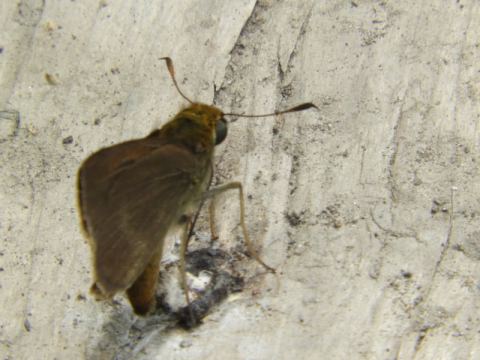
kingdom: Animalia
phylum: Arthropoda
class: Insecta
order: Lepidoptera
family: Hesperiidae
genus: Euphyes
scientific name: Euphyes vestris
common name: Dun Skipper
